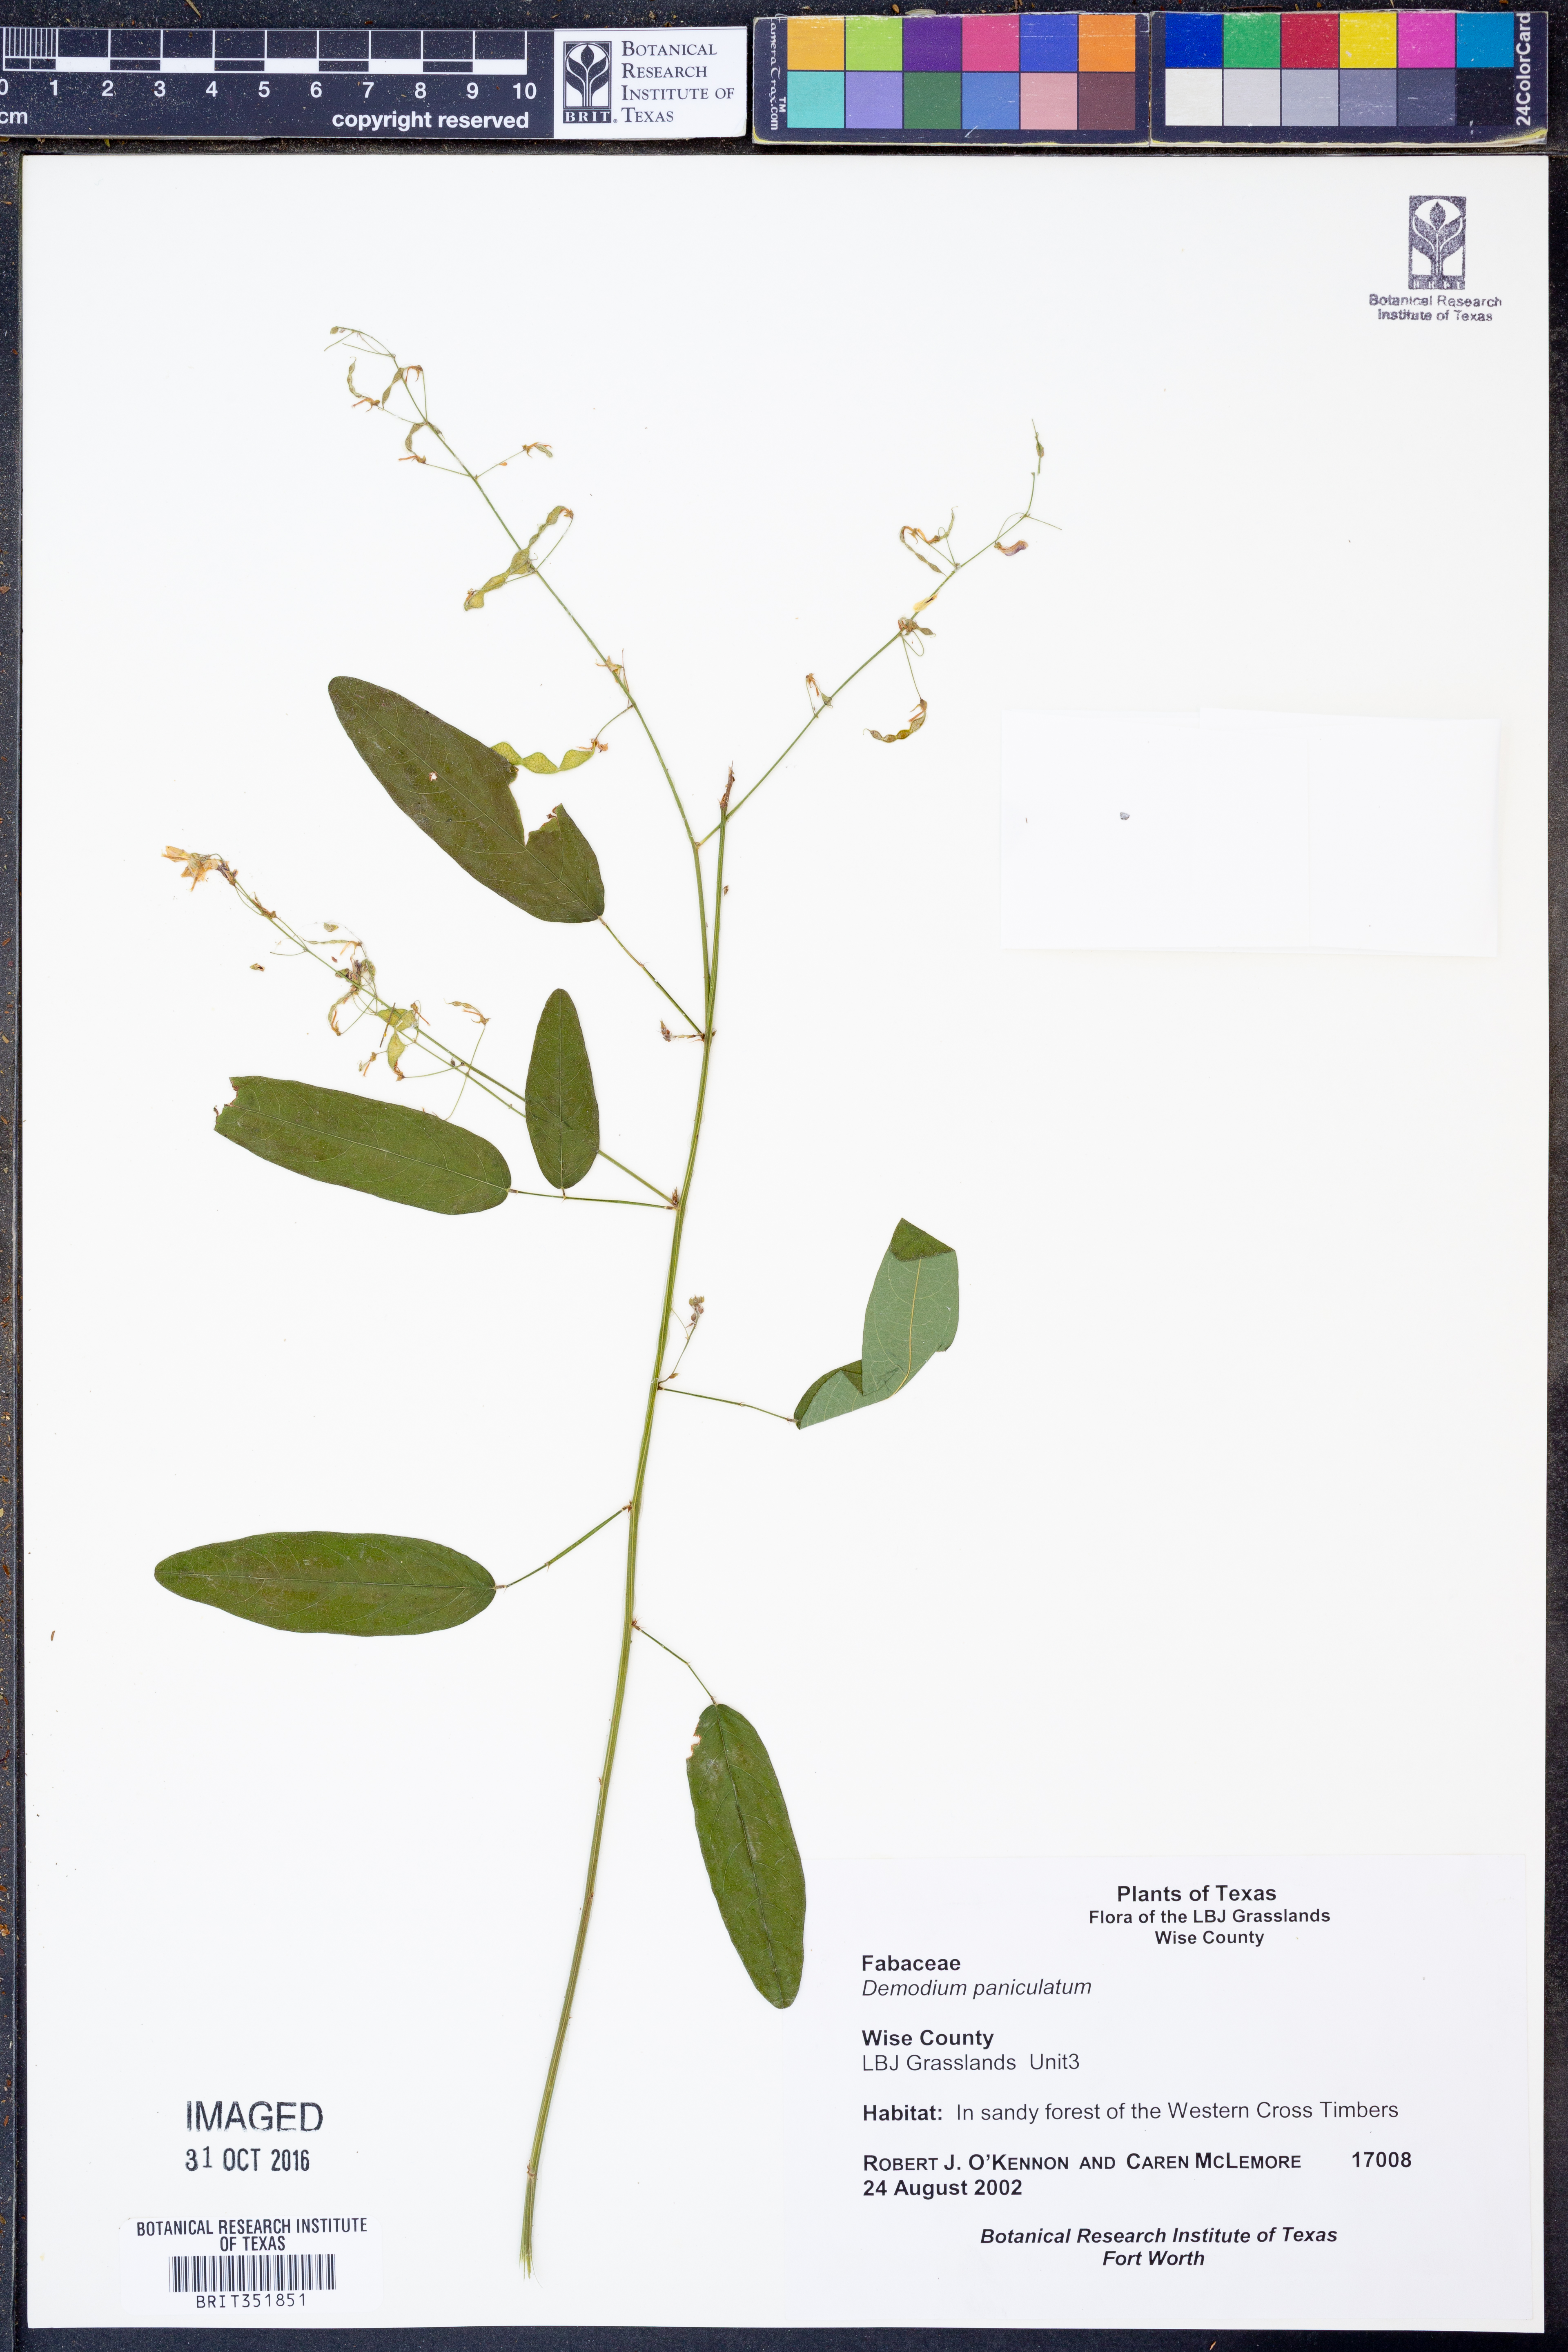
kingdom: Plantae
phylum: Tracheophyta
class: Magnoliopsida
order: Fabales
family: Fabaceae
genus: Desmodium
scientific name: Desmodium paniculatum
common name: Panicled tick-clover
